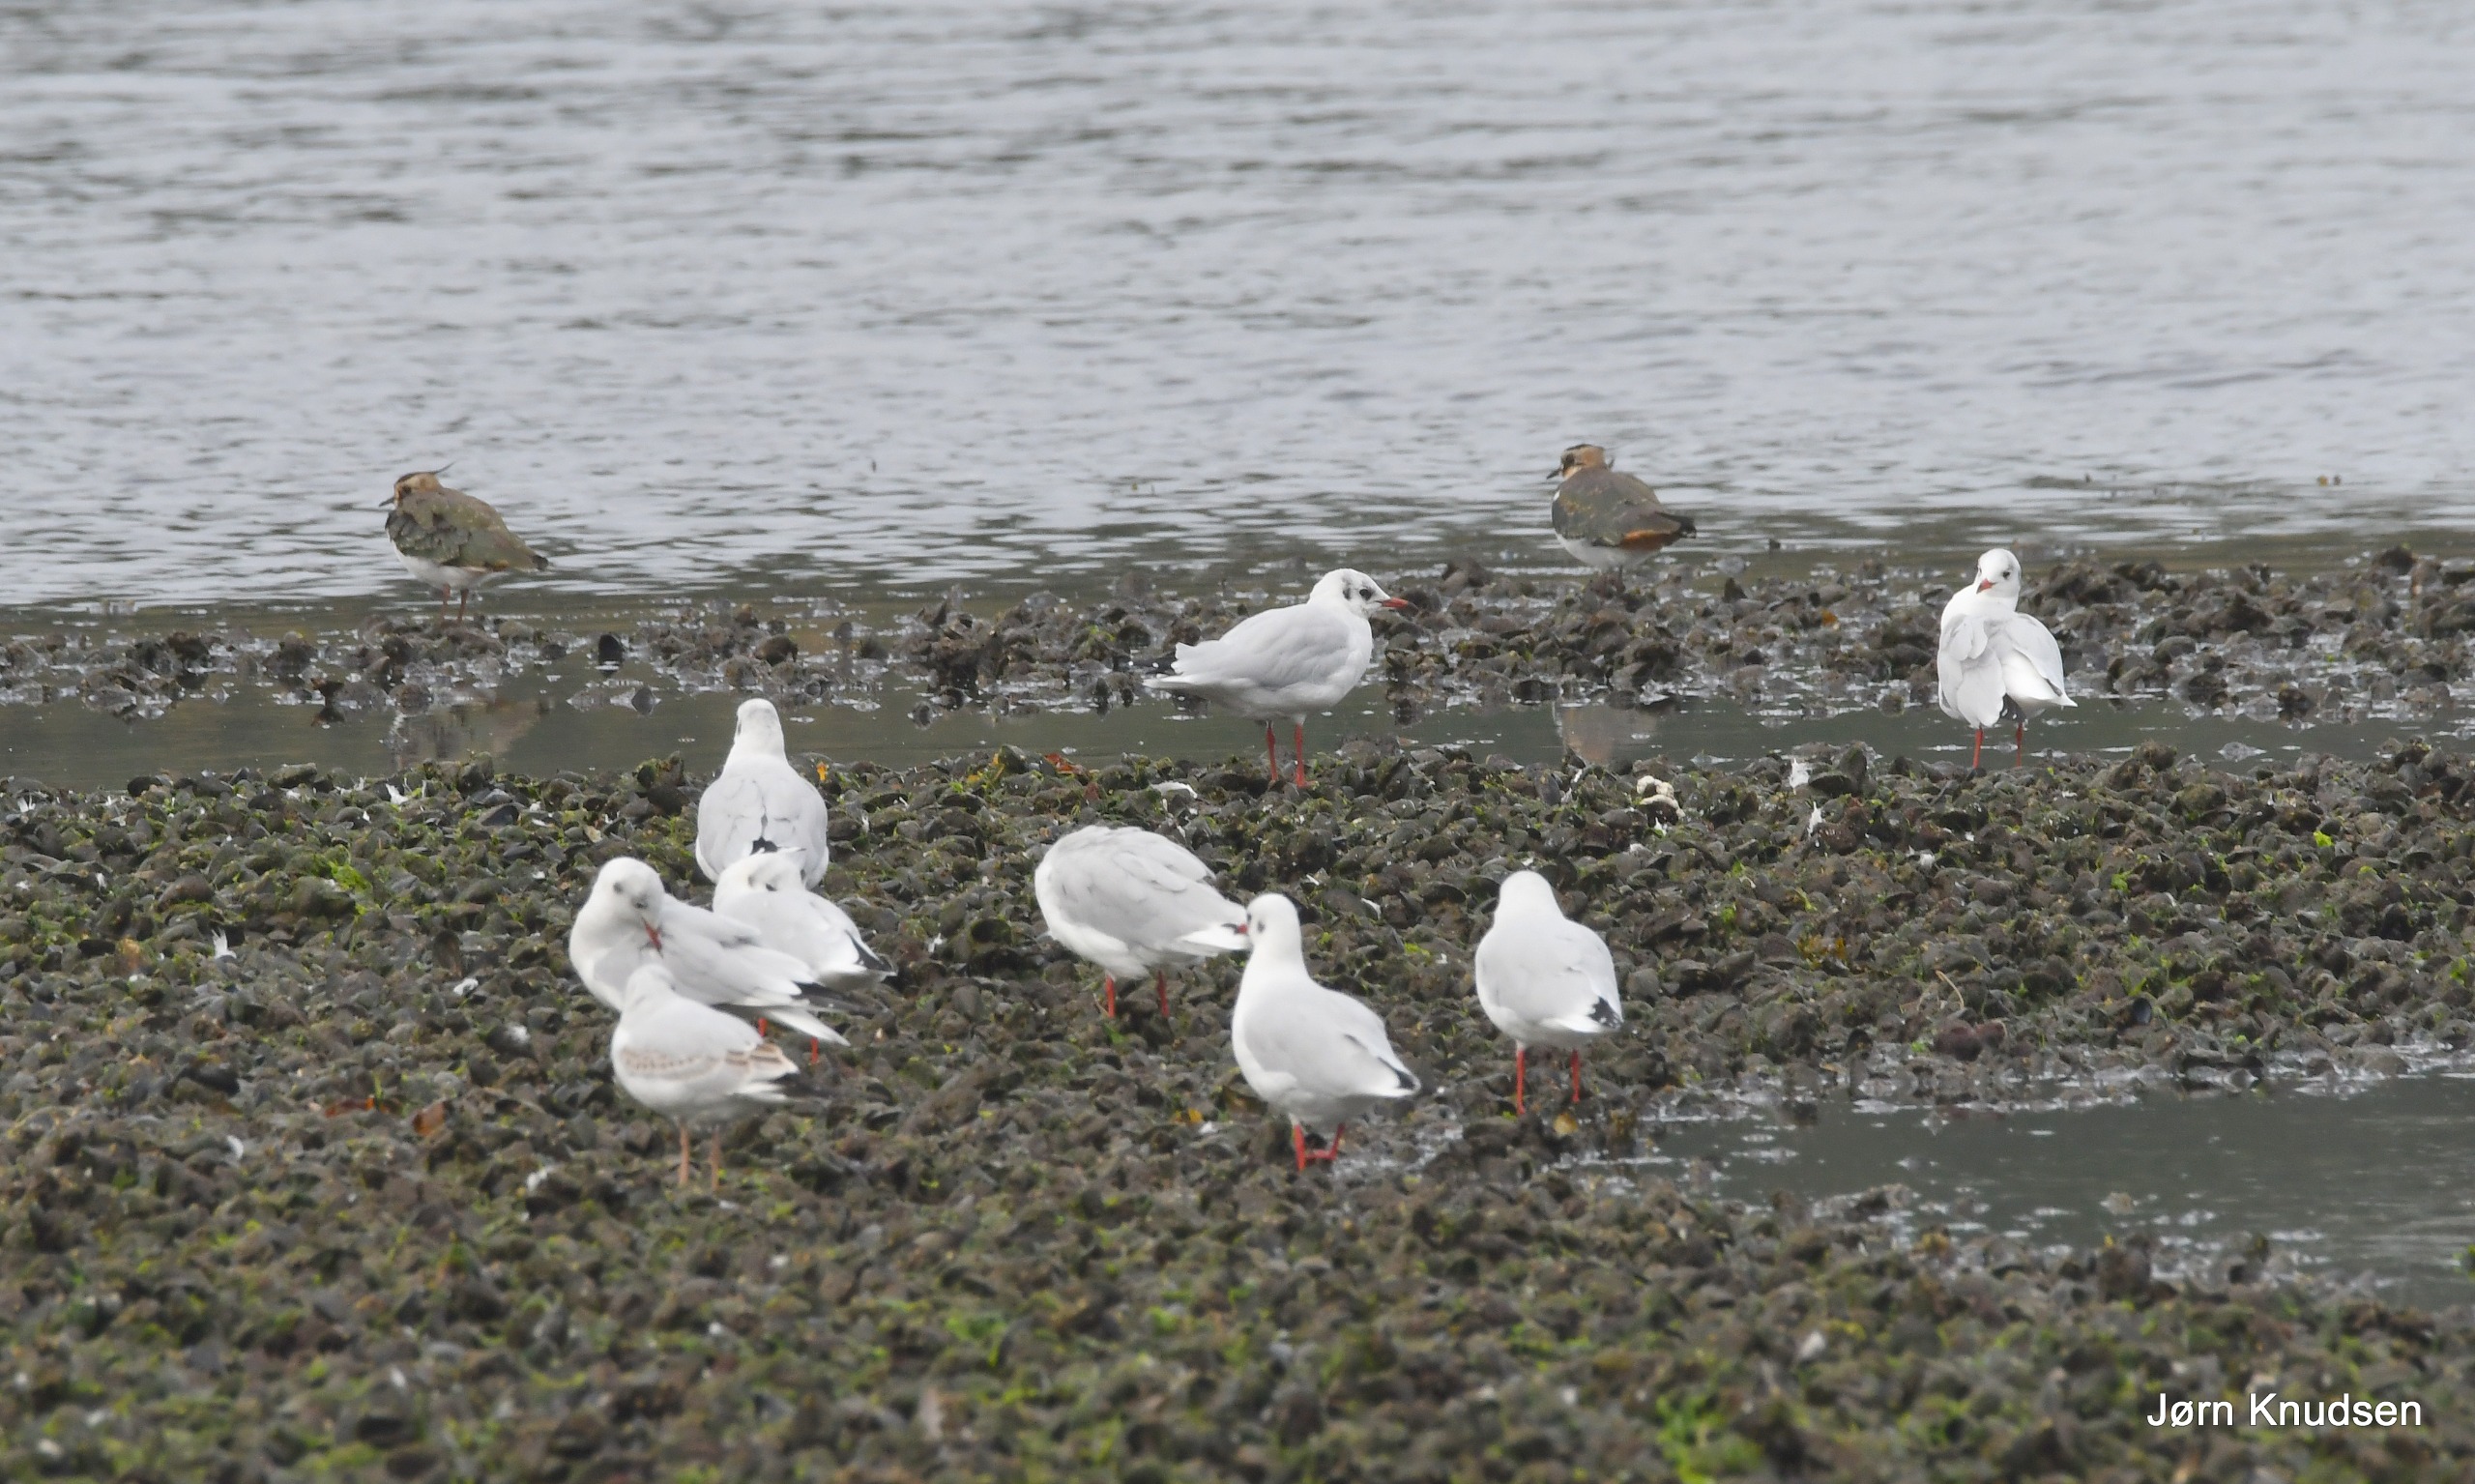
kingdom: Animalia
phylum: Chordata
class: Aves
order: Charadriiformes
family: Laridae
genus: Chroicocephalus
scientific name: Chroicocephalus ridibundus
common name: Hættemåge
